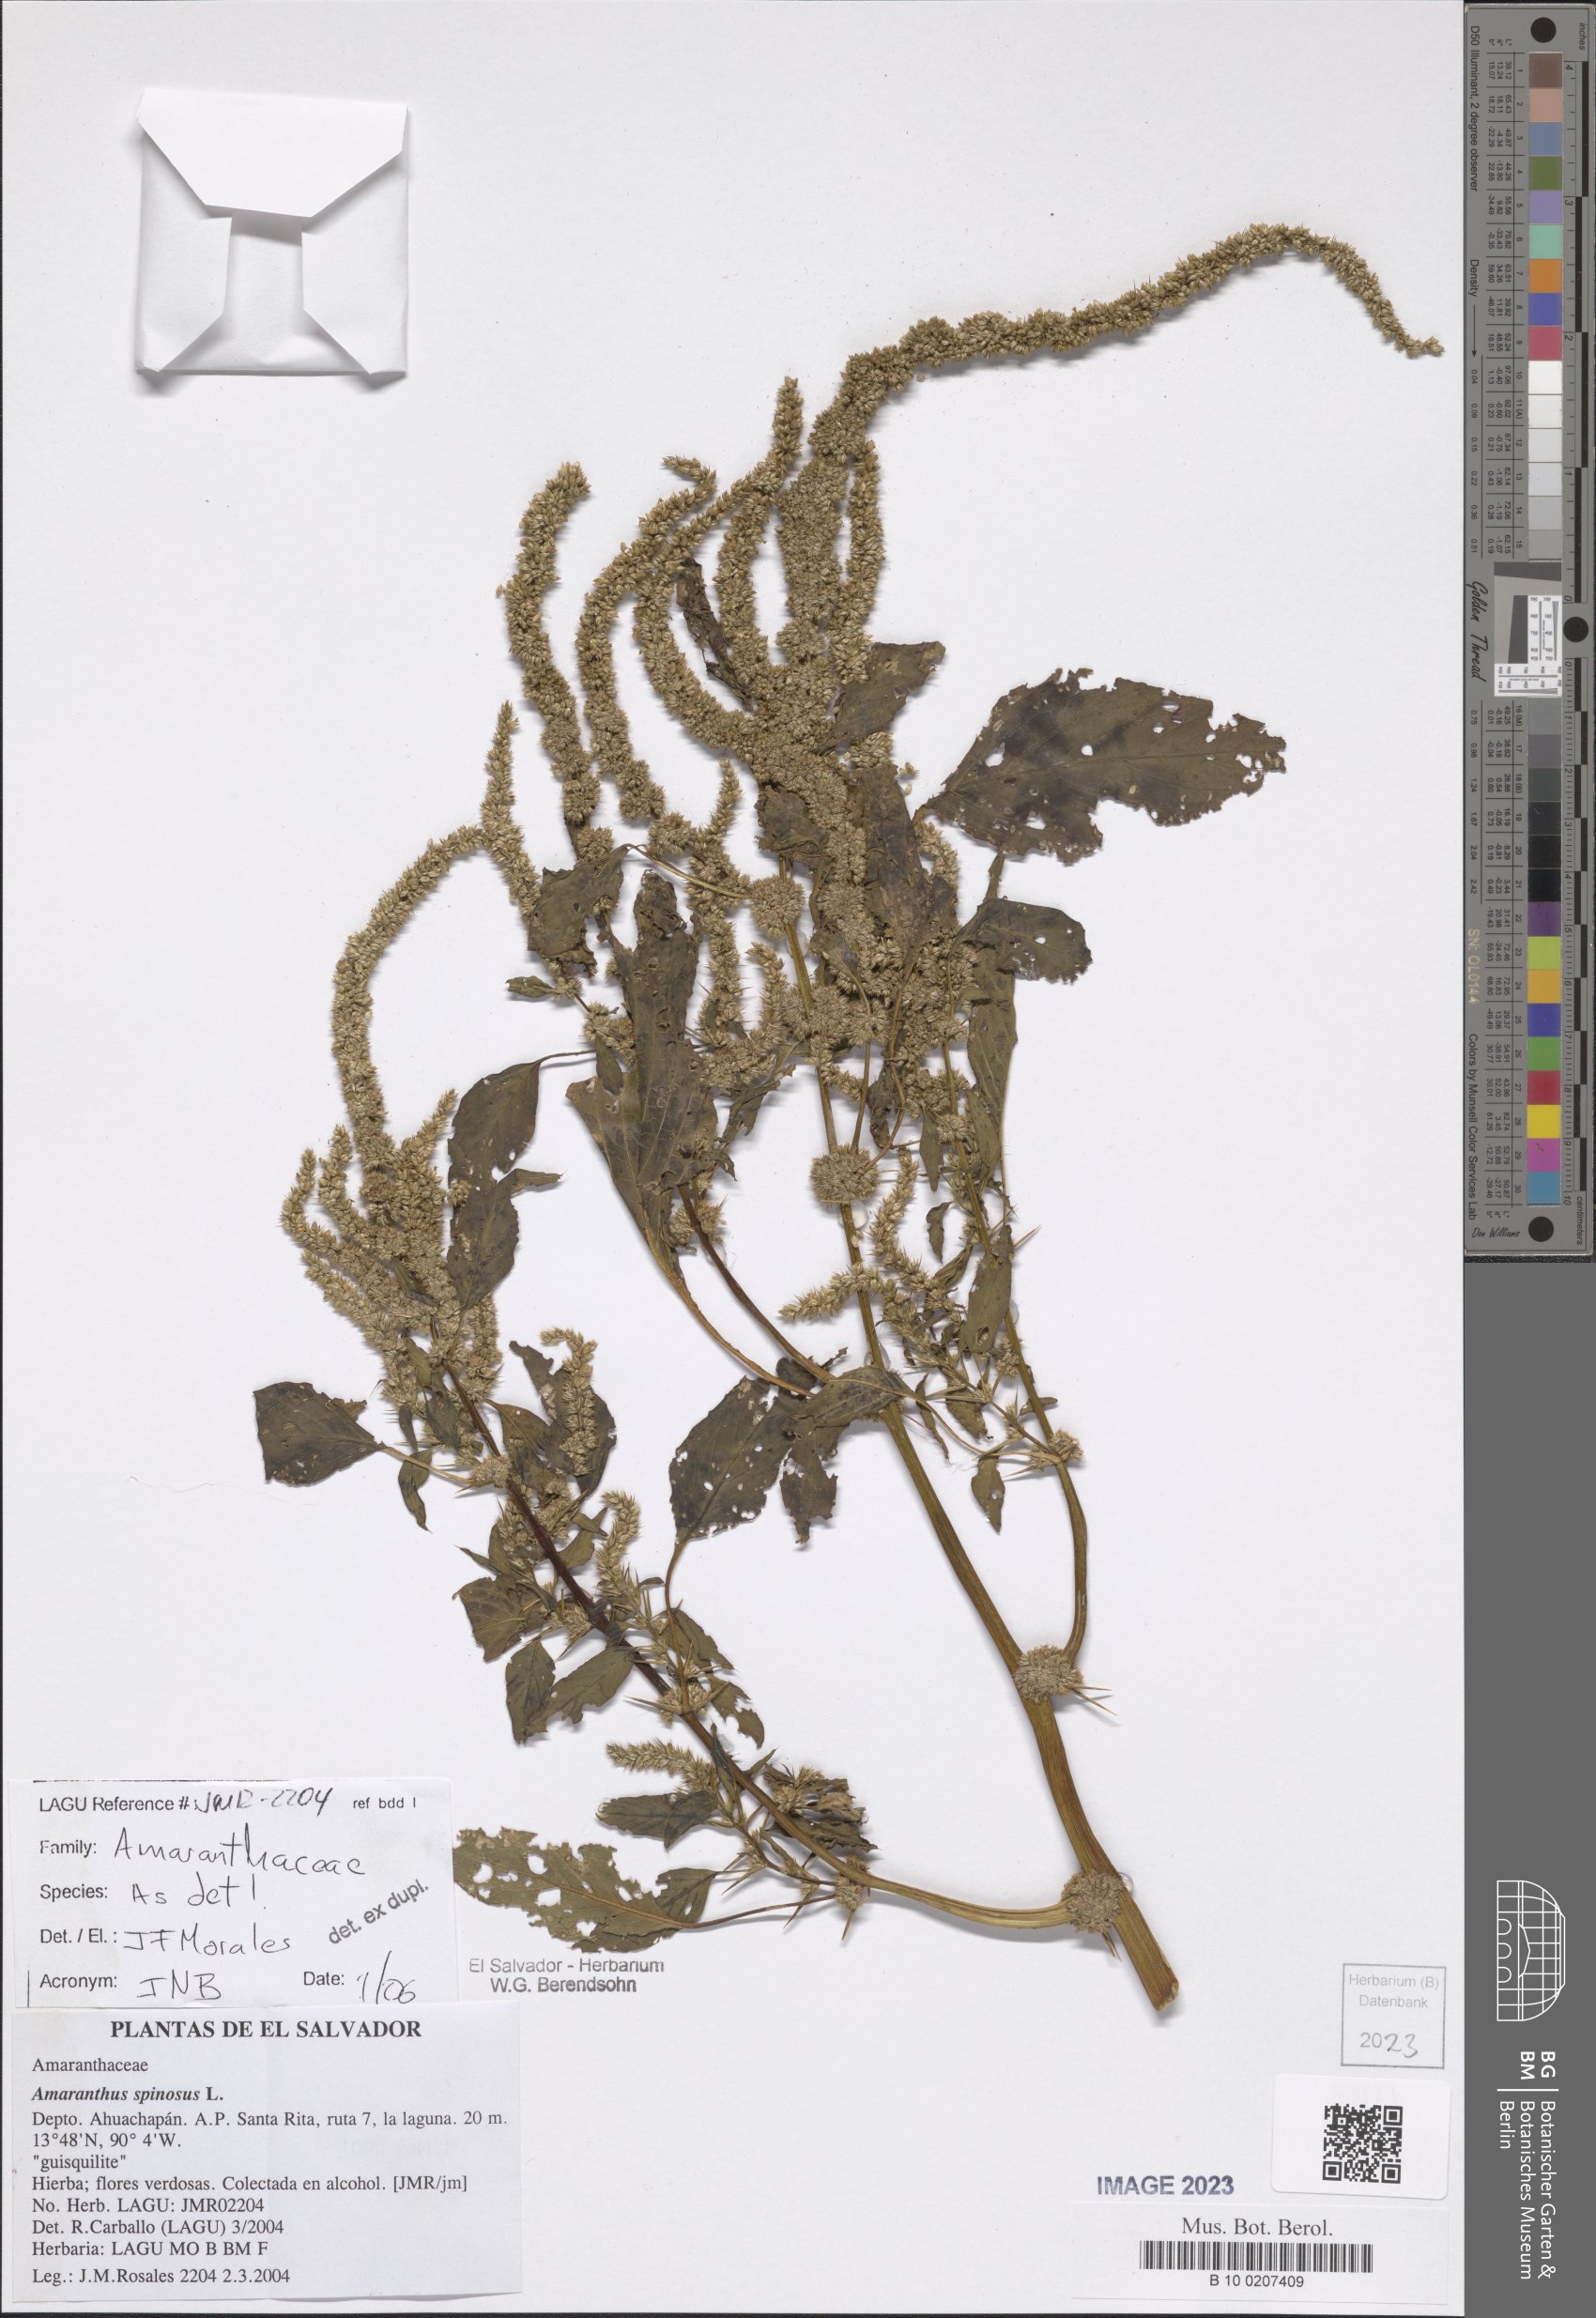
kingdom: Plantae
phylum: Tracheophyta
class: Magnoliopsida
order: Caryophyllales
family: Amaranthaceae
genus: Amaranthus
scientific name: Amaranthus spinosus
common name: Spiny amaranth
